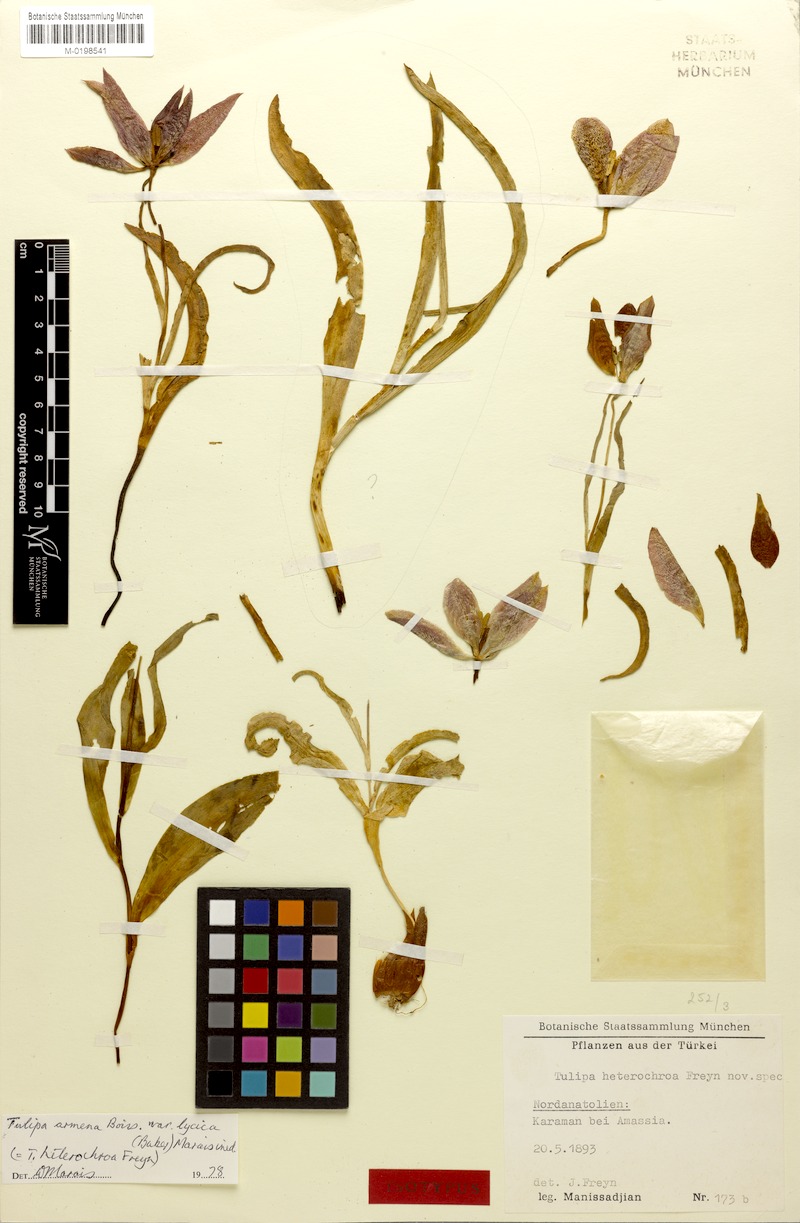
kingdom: Plantae
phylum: Tracheophyta
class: Liliopsida
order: Liliales
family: Liliaceae
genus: Tulipa
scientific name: Tulipa foliosa
